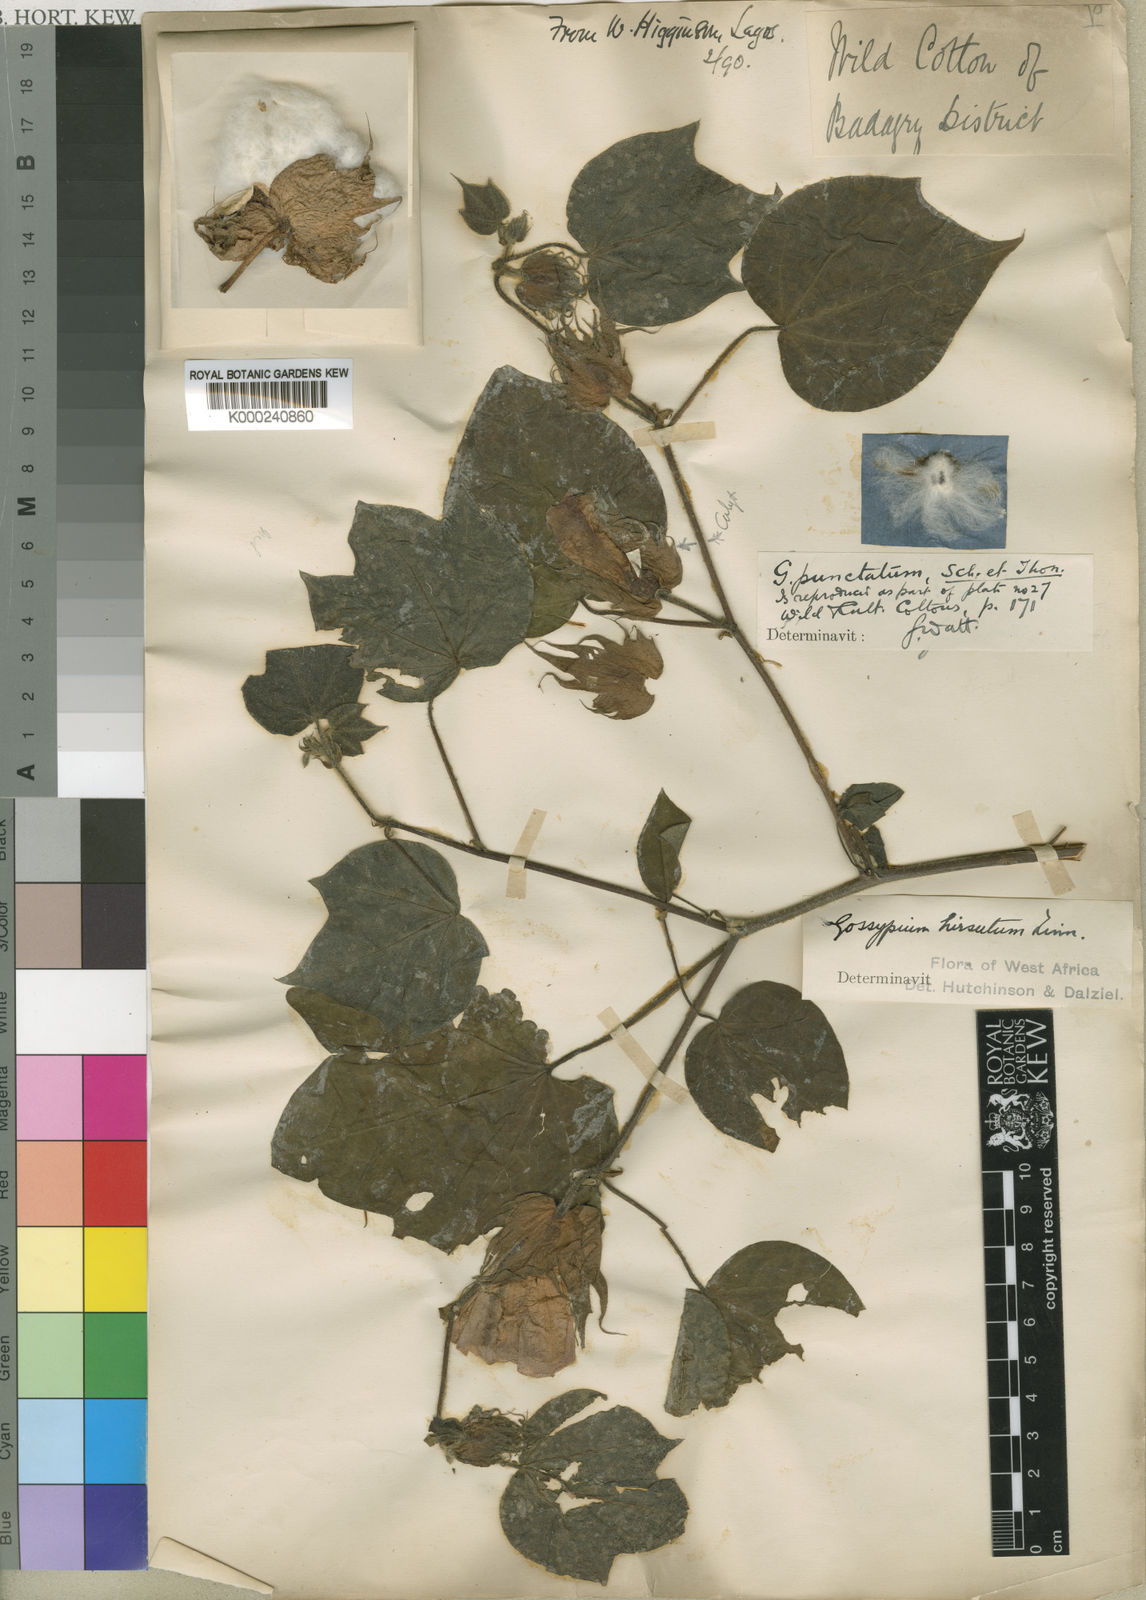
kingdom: Plantae
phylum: Tracheophyta
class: Magnoliopsida
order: Malvales
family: Malvaceae
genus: Gossypium
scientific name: Gossypium hirsutum
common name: Cotton
